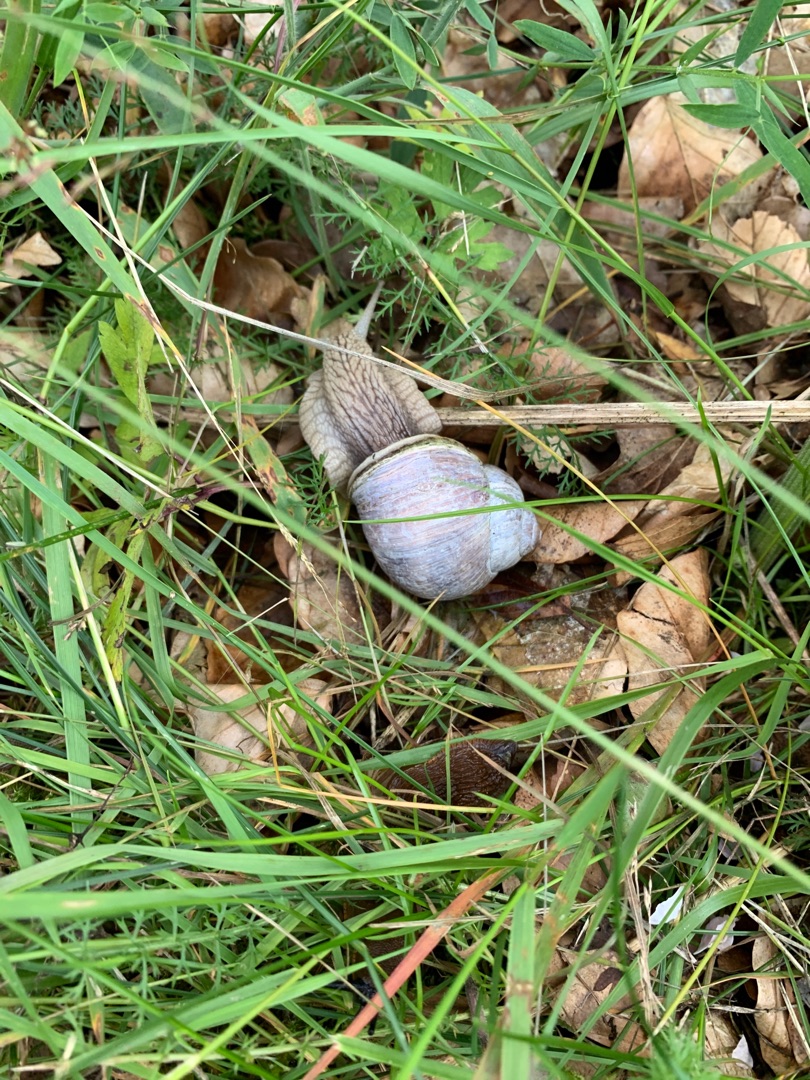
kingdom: Animalia
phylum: Mollusca
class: Gastropoda
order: Stylommatophora
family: Helicidae
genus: Helix
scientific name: Helix pomatia
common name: Vinbjergsnegl
